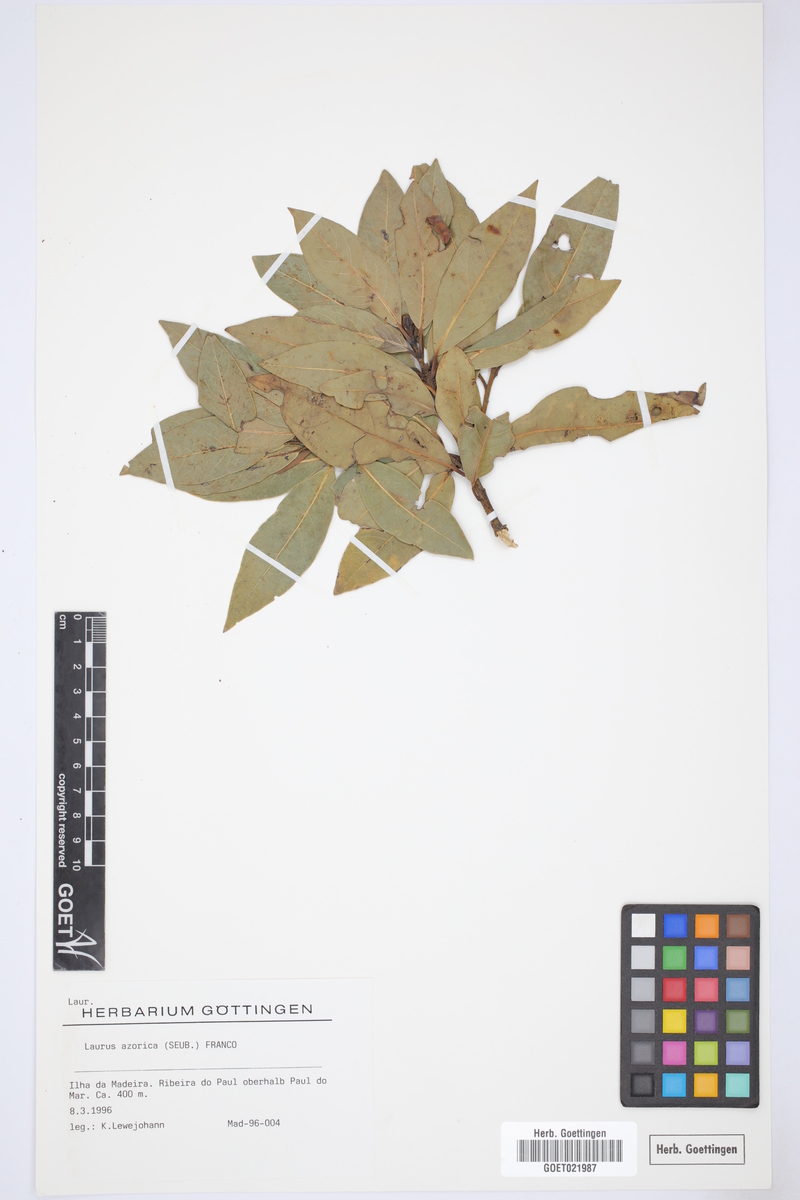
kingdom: Plantae
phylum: Tracheophyta
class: Magnoliopsida
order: Laurales
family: Lauraceae
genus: Laurus
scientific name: Laurus azorica
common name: Macaronesian laurel
